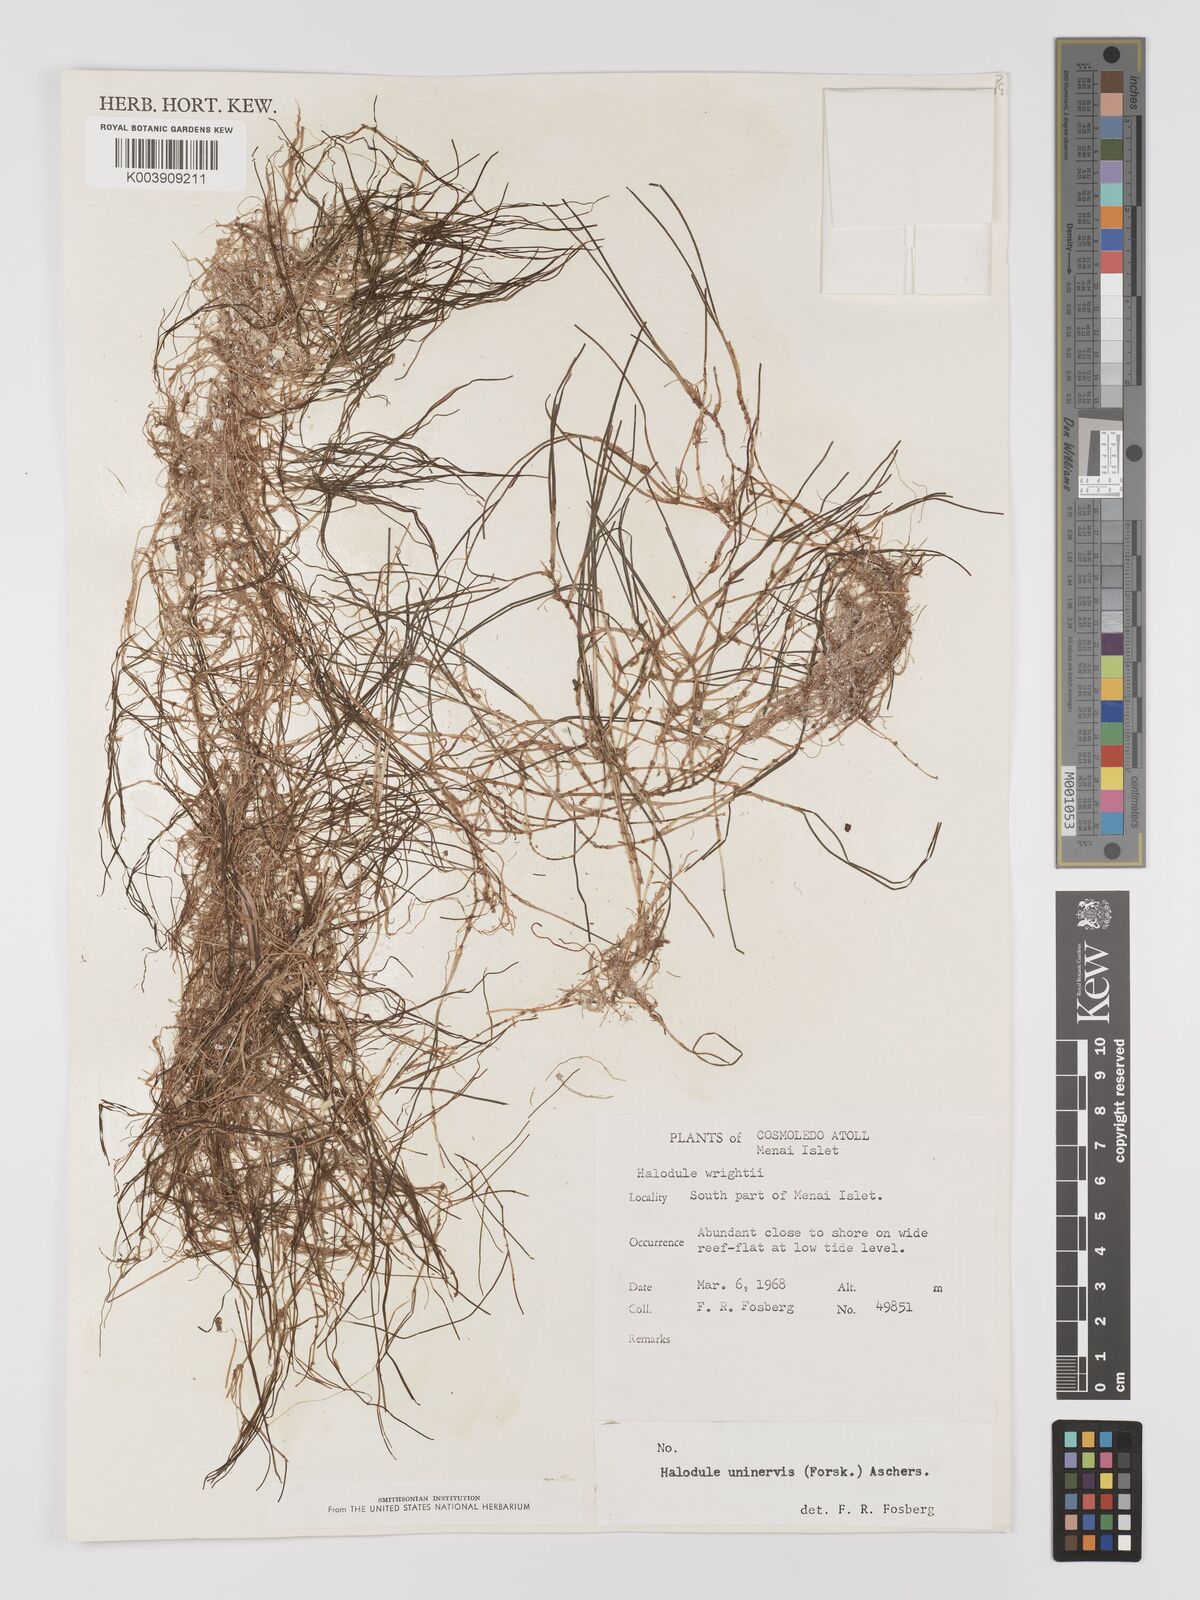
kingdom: Plantae
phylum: Tracheophyta
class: Liliopsida
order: Alismatales
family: Cymodoceaceae
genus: Halodule
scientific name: Halodule uninervis
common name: Narrowleaf seagrass
